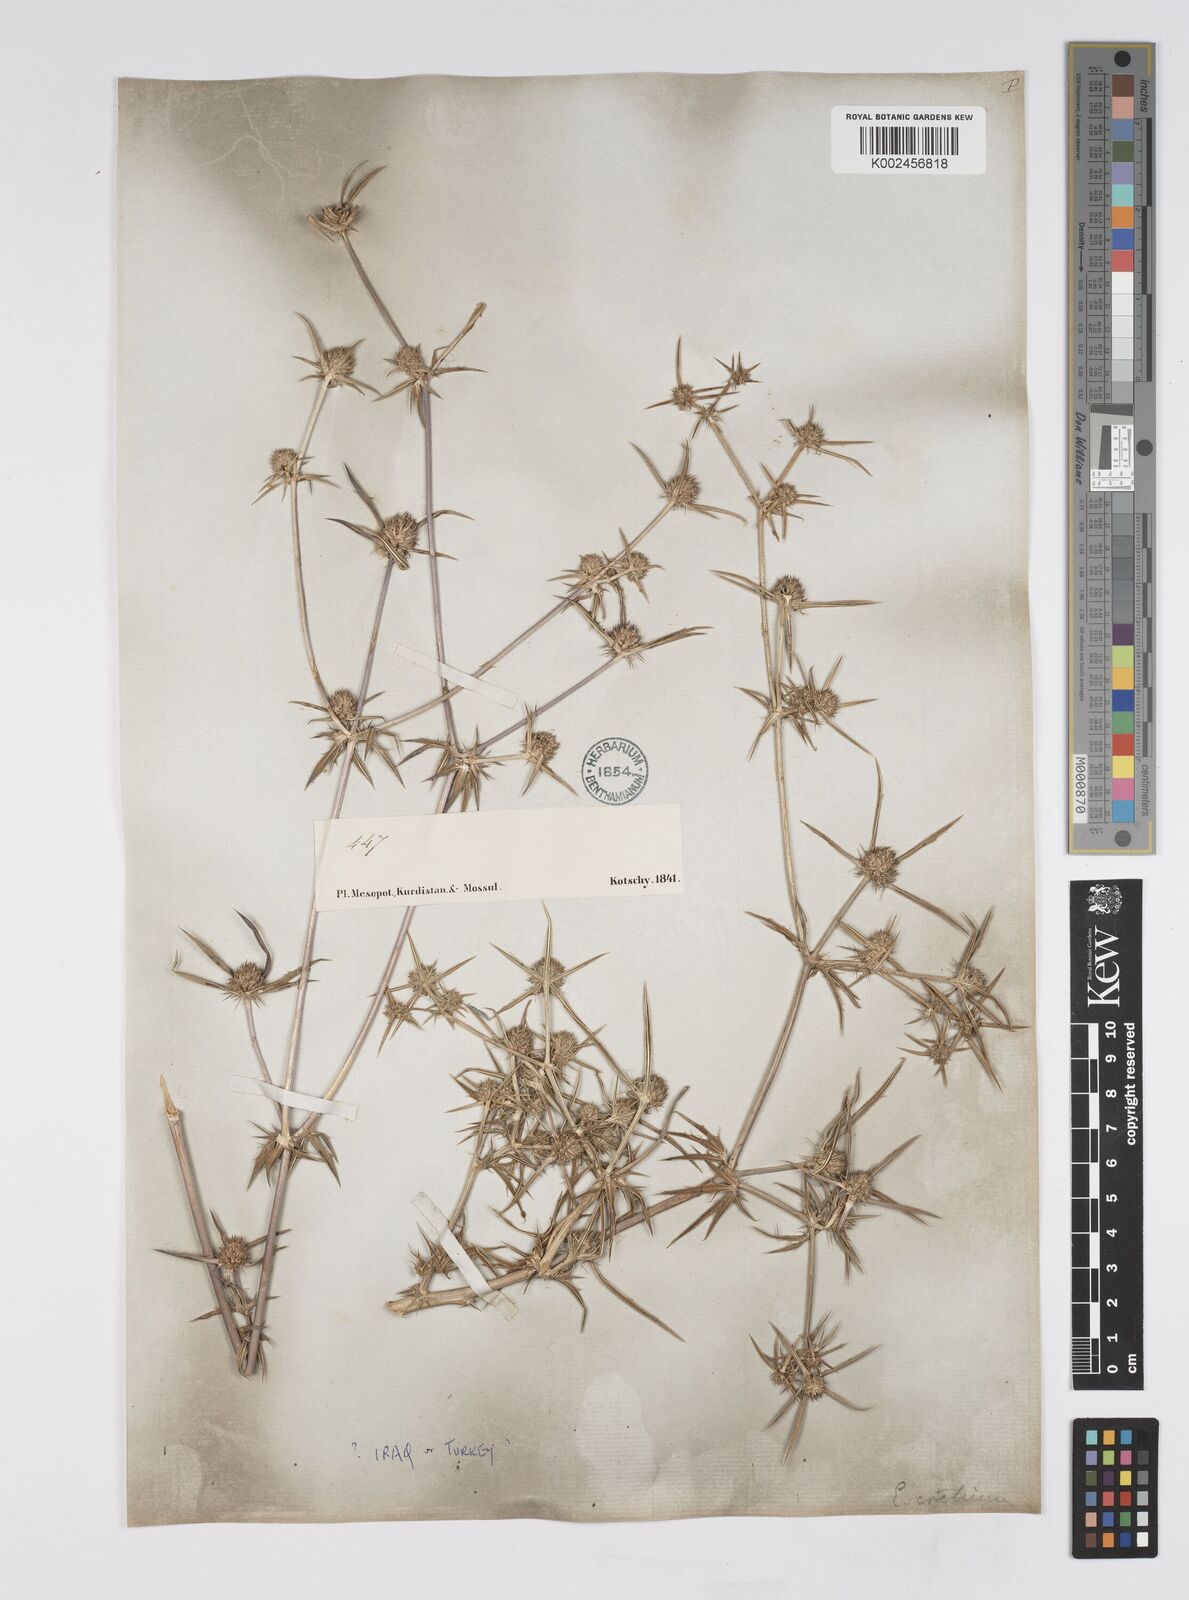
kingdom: Plantae
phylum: Tracheophyta
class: Magnoliopsida
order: Apiales
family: Apiaceae
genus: Eryngium
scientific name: Eryngium creticum
